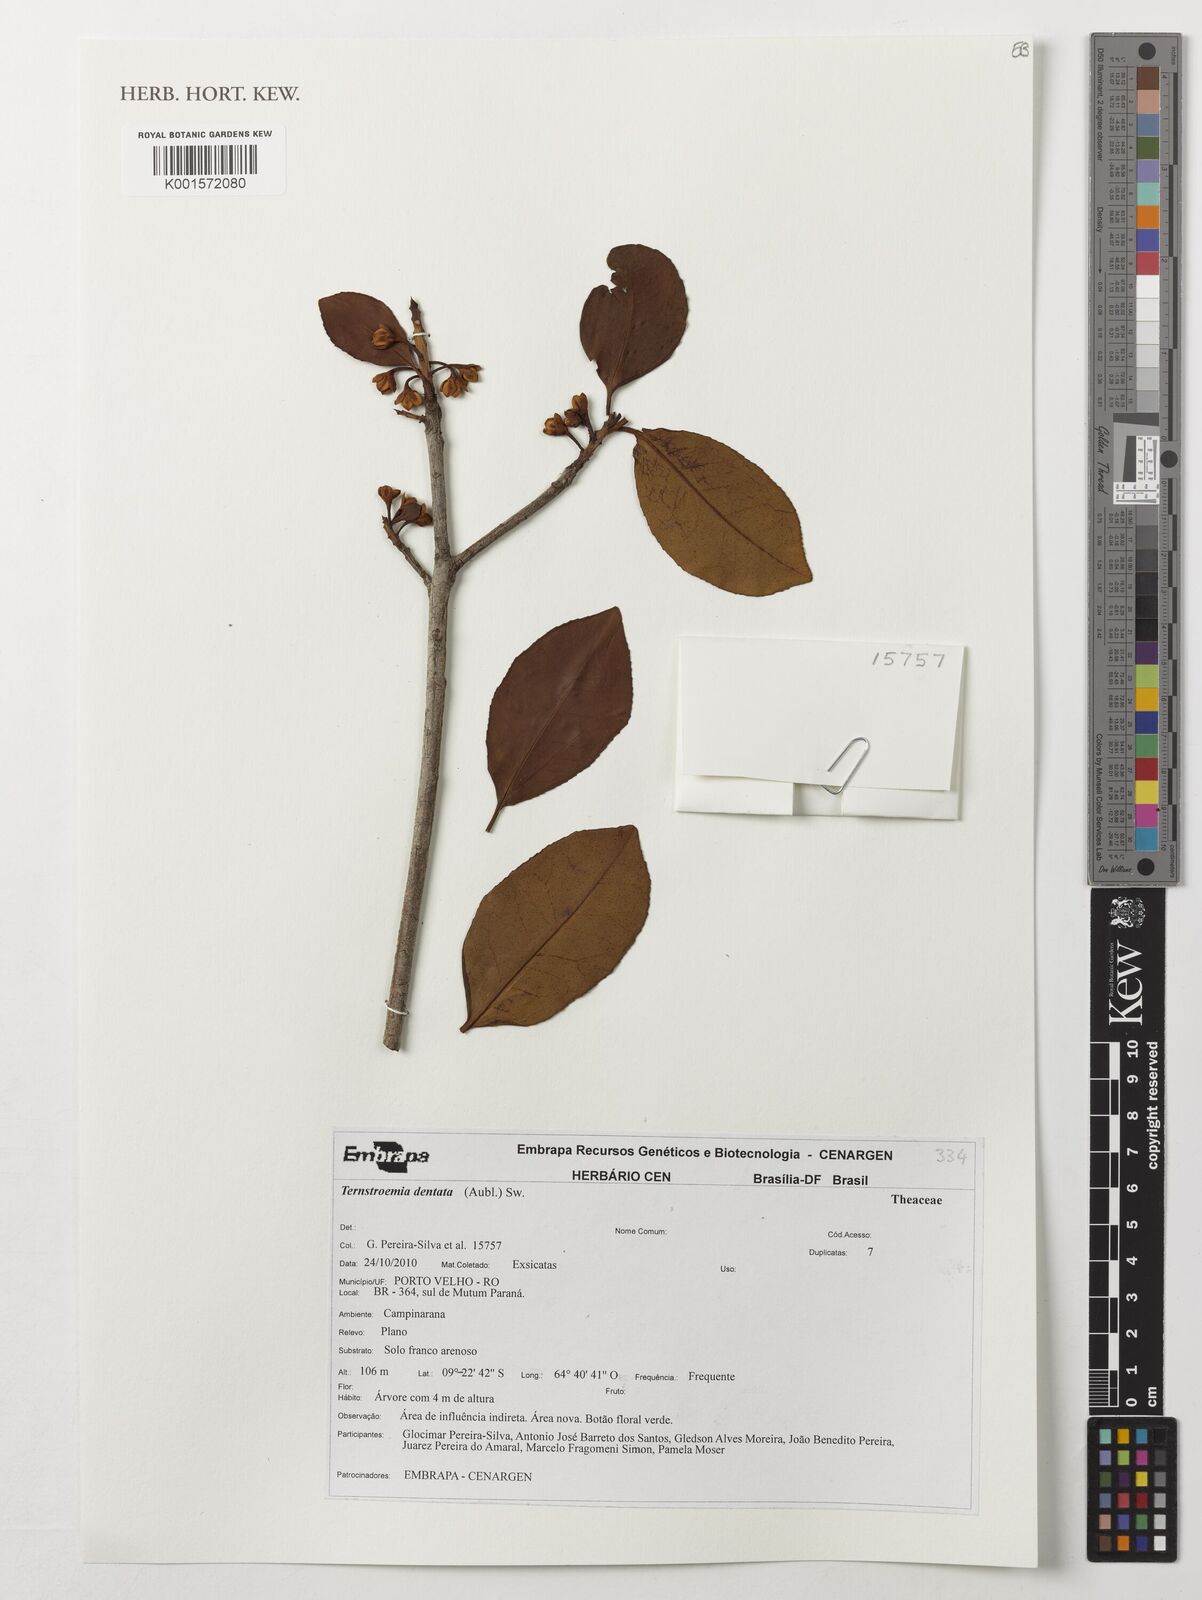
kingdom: Plantae
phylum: Tracheophyta
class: Magnoliopsida
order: Ericales
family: Pentaphylacaceae
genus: Ternstroemia
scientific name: Ternstroemia dentata
